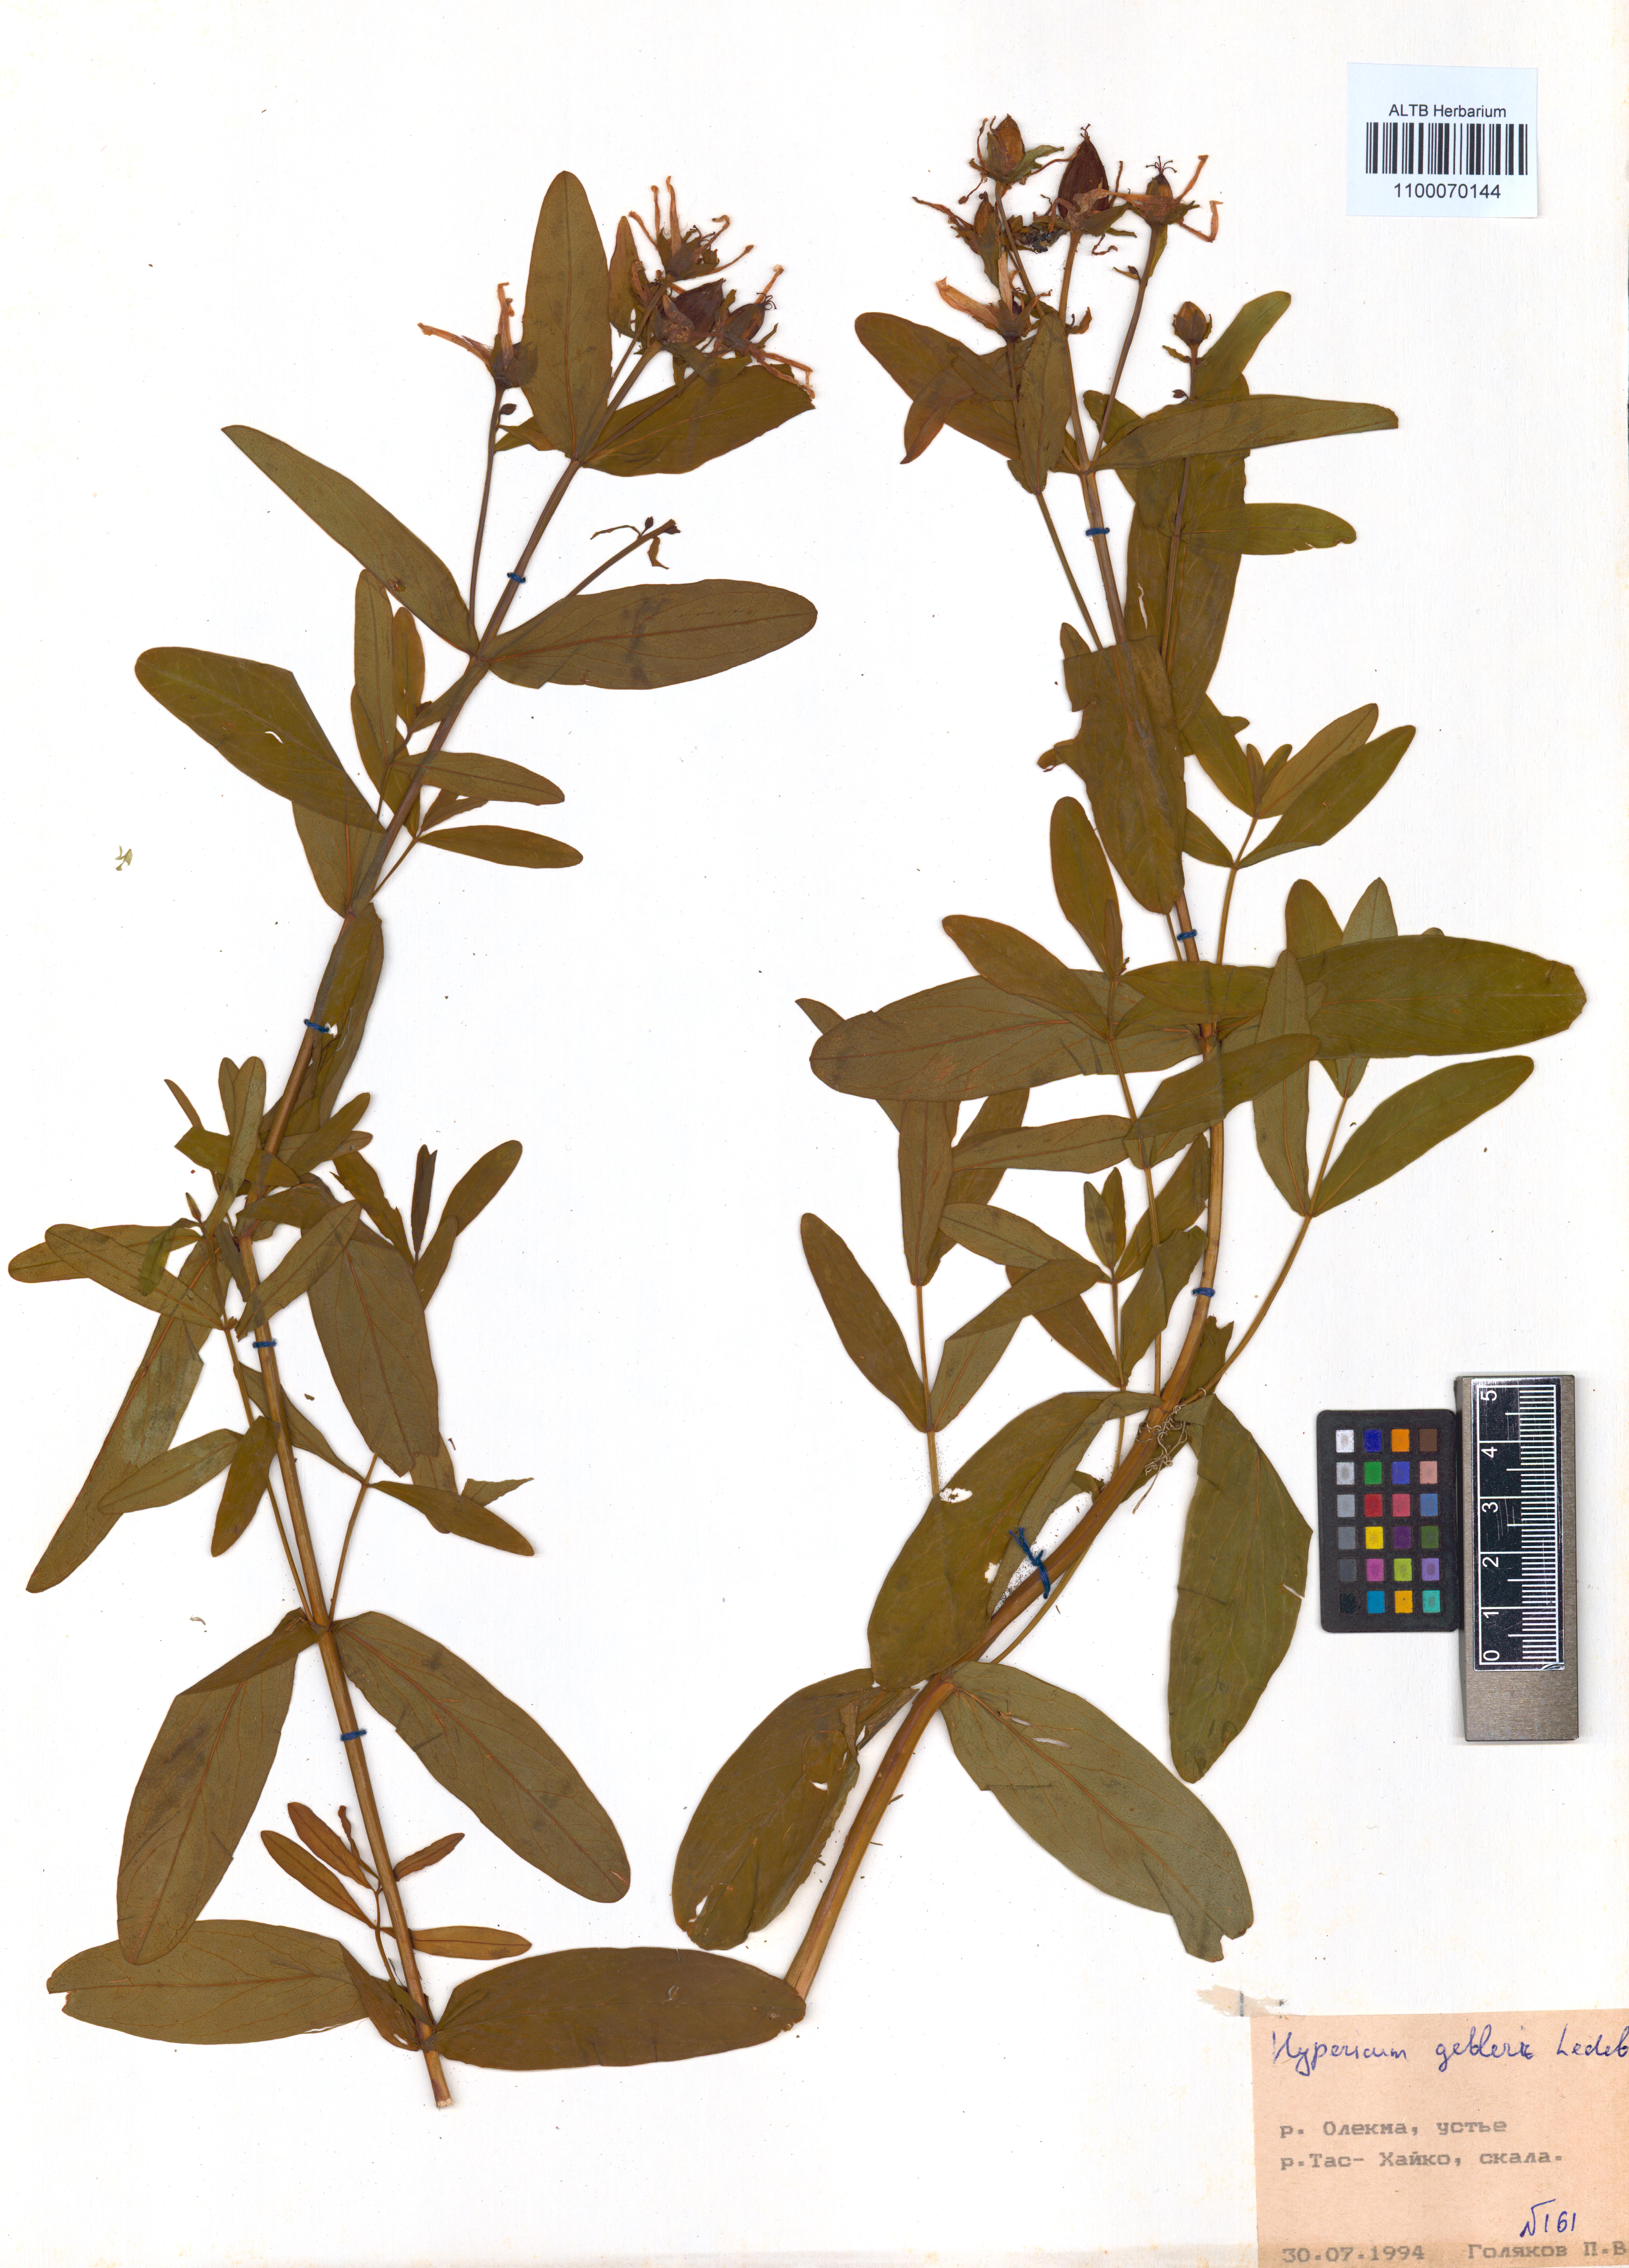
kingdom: Plantae
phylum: Tracheophyta
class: Magnoliopsida
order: Malpighiales
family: Hypericaceae
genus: Hypericum
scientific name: Hypericum ascyron
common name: Giant st. john's-wort
